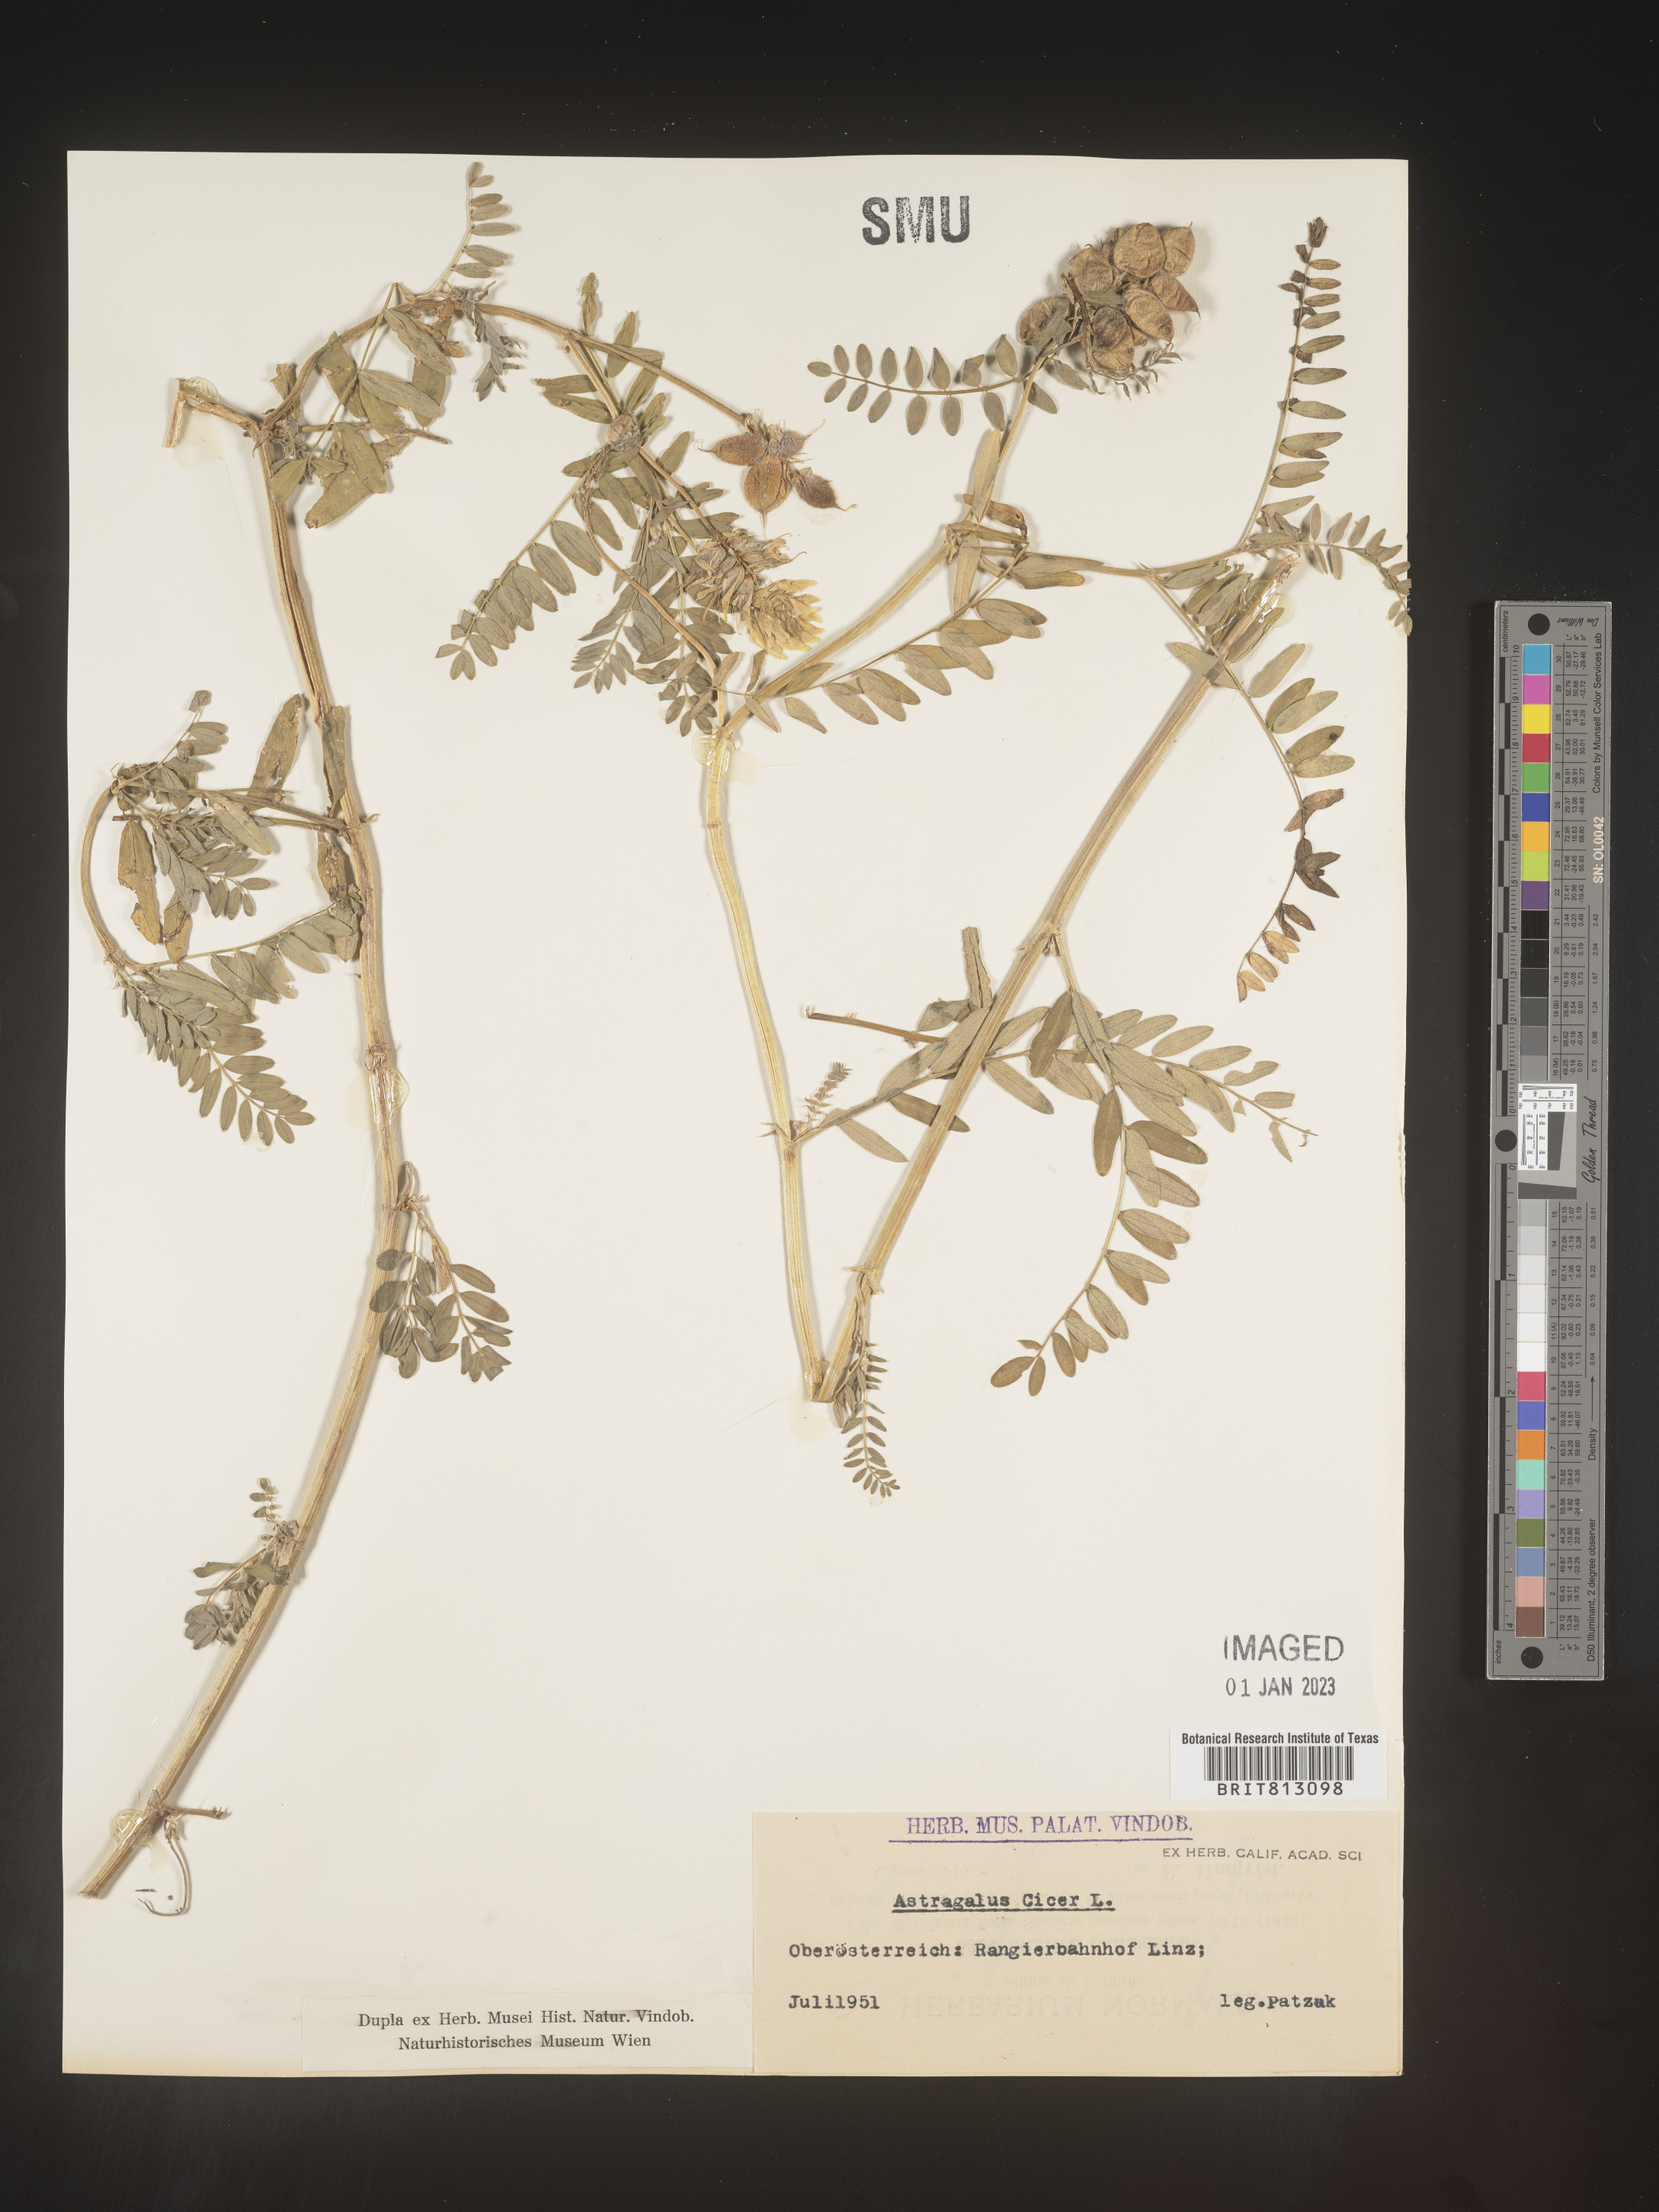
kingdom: Plantae
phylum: Tracheophyta
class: Magnoliopsida
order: Fabales
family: Fabaceae
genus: Astragalus
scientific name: Astragalus
